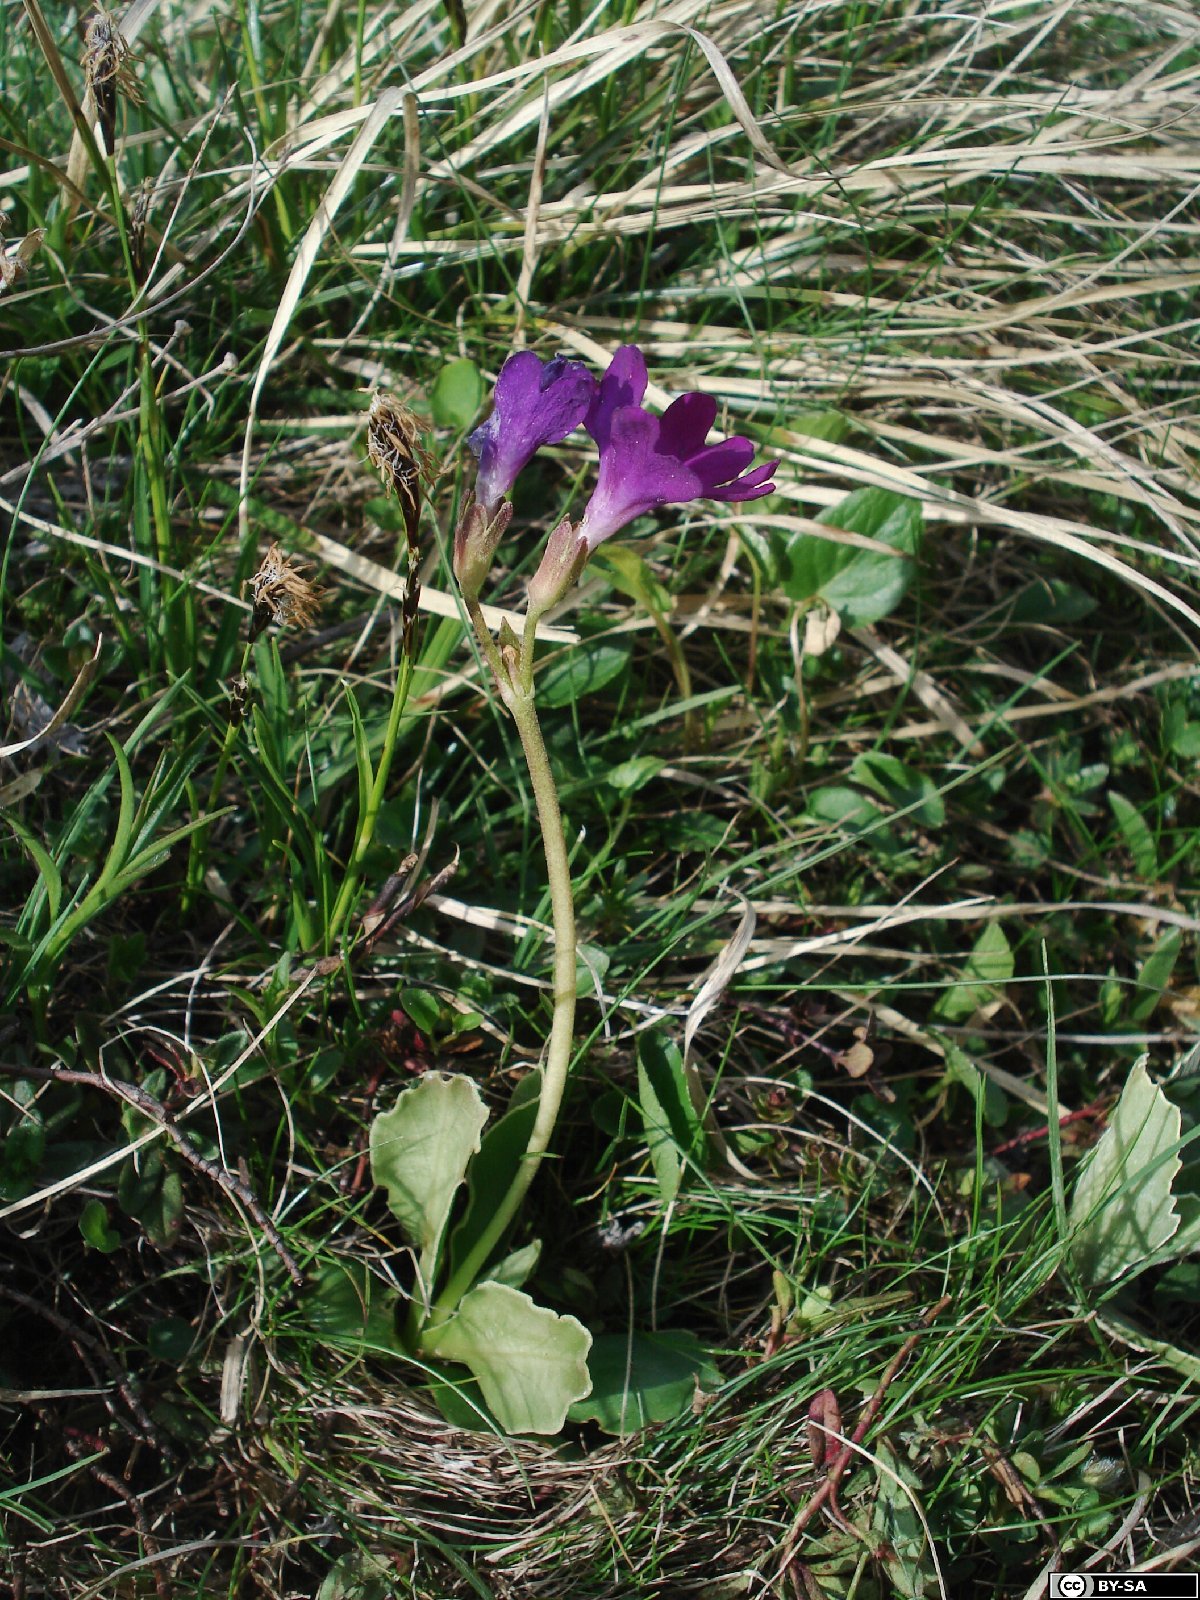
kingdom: Plantae
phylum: Tracheophyta
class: Magnoliopsida
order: Ericales
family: Primulaceae
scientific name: Primulaceae
